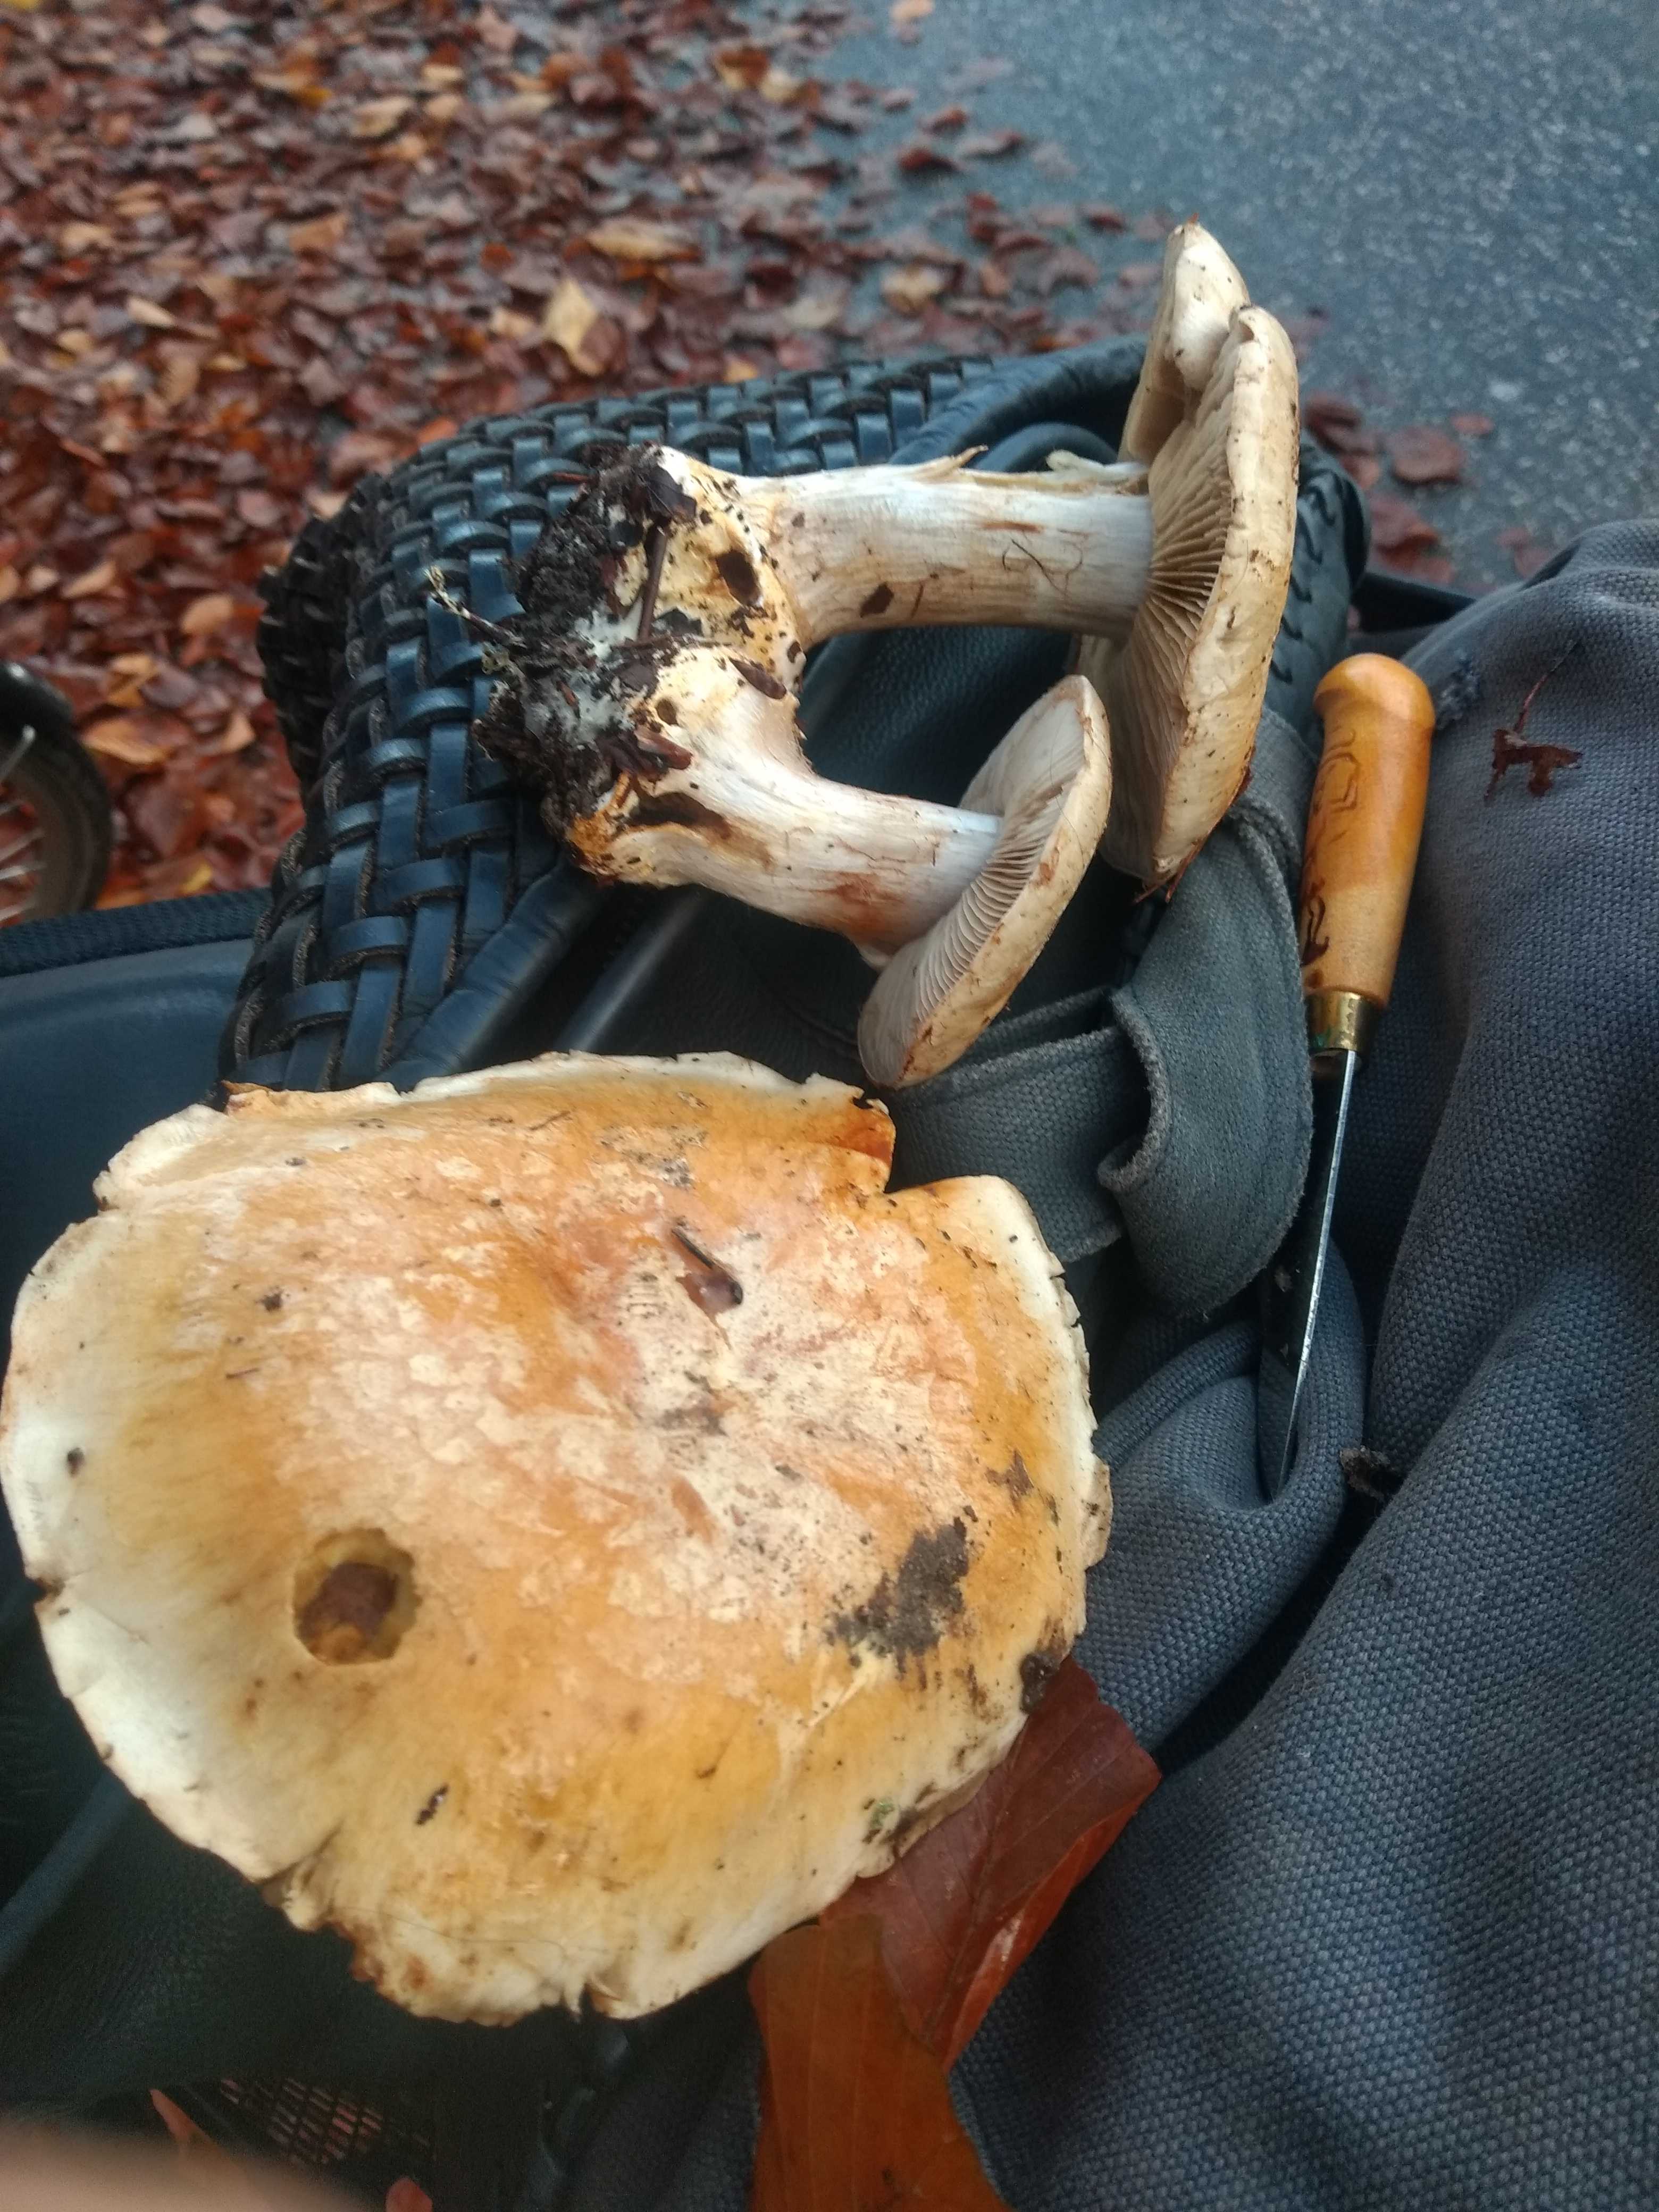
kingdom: Fungi
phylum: Basidiomycota
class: Agaricomycetes
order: Agaricales
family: Cortinariaceae
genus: Cortinarius
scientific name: Cortinarius foetens
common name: stribet slørhat
